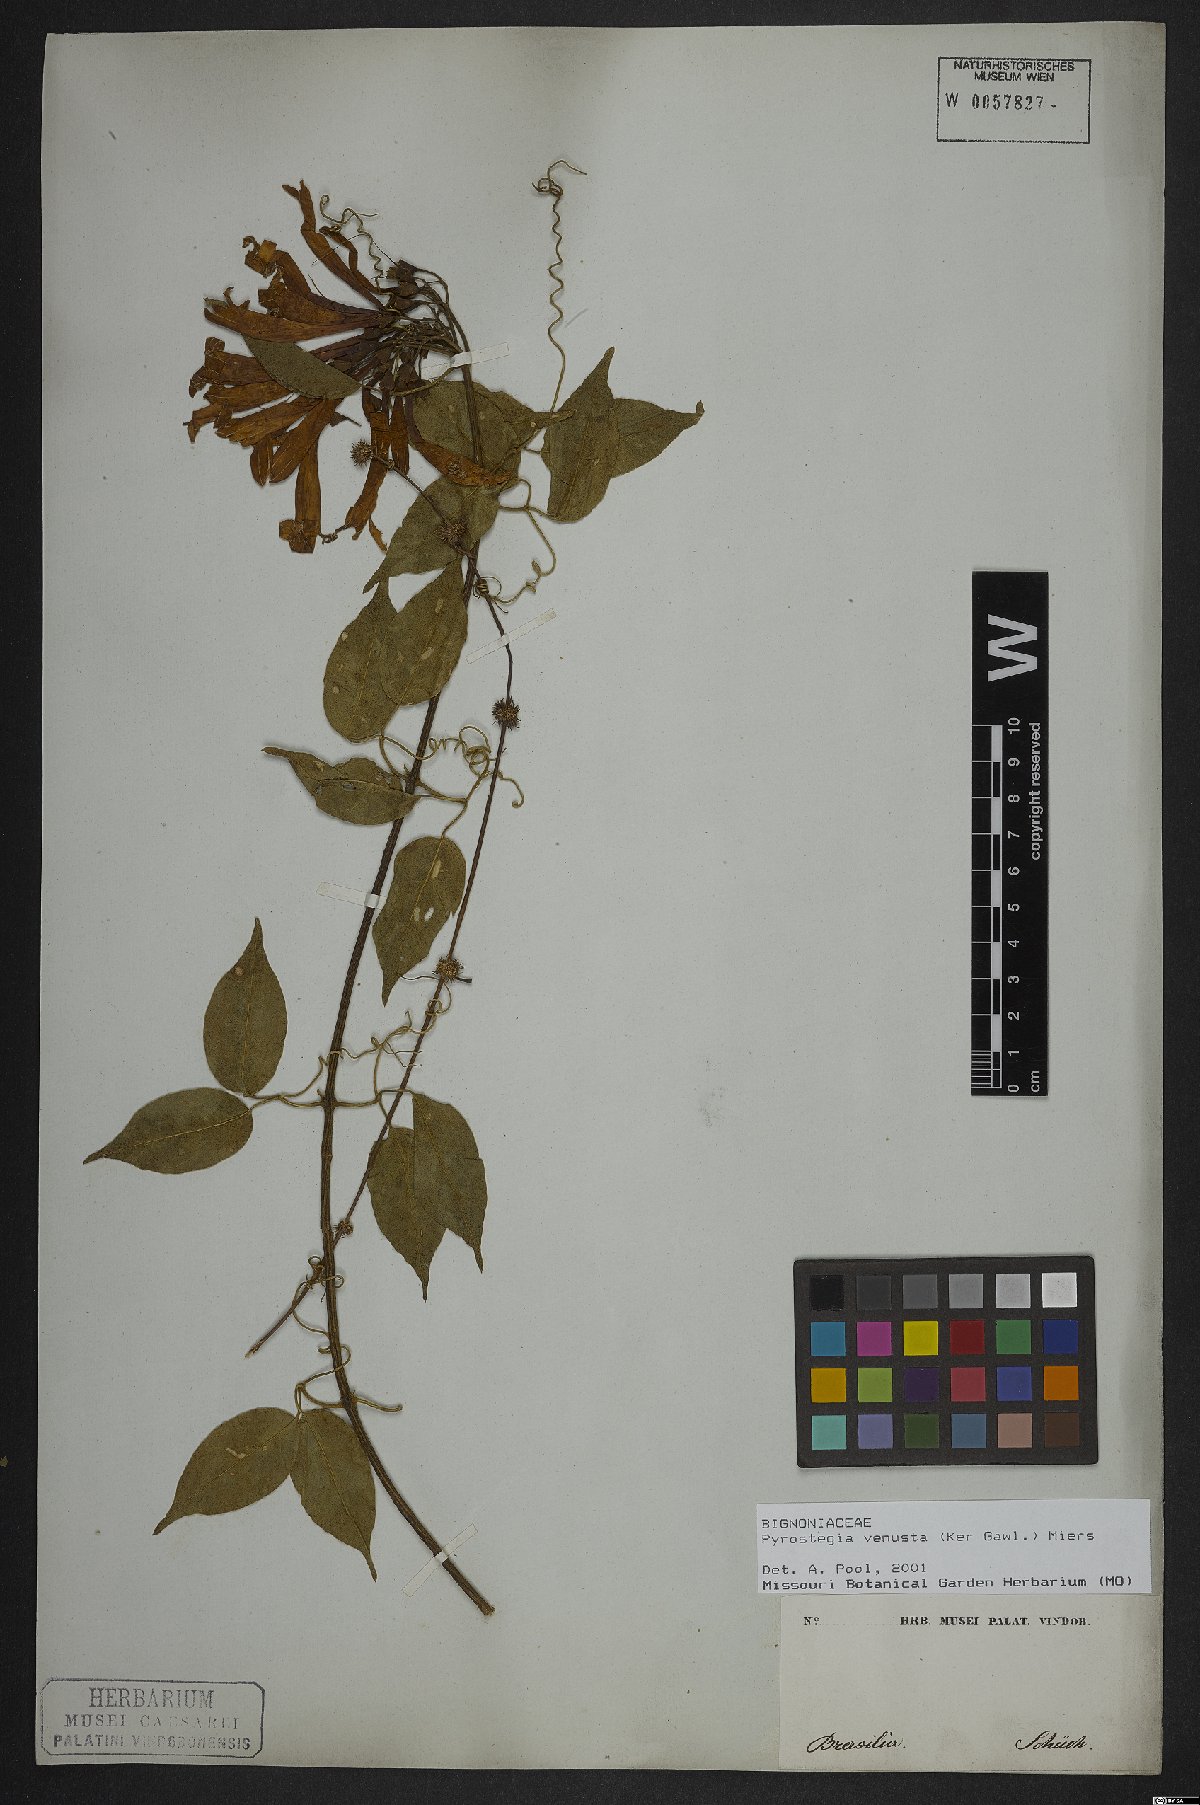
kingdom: Plantae
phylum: Tracheophyta
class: Magnoliopsida
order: Lamiales
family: Bignoniaceae
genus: Pyrostegia
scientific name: Pyrostegia venusta
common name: Flamevine
